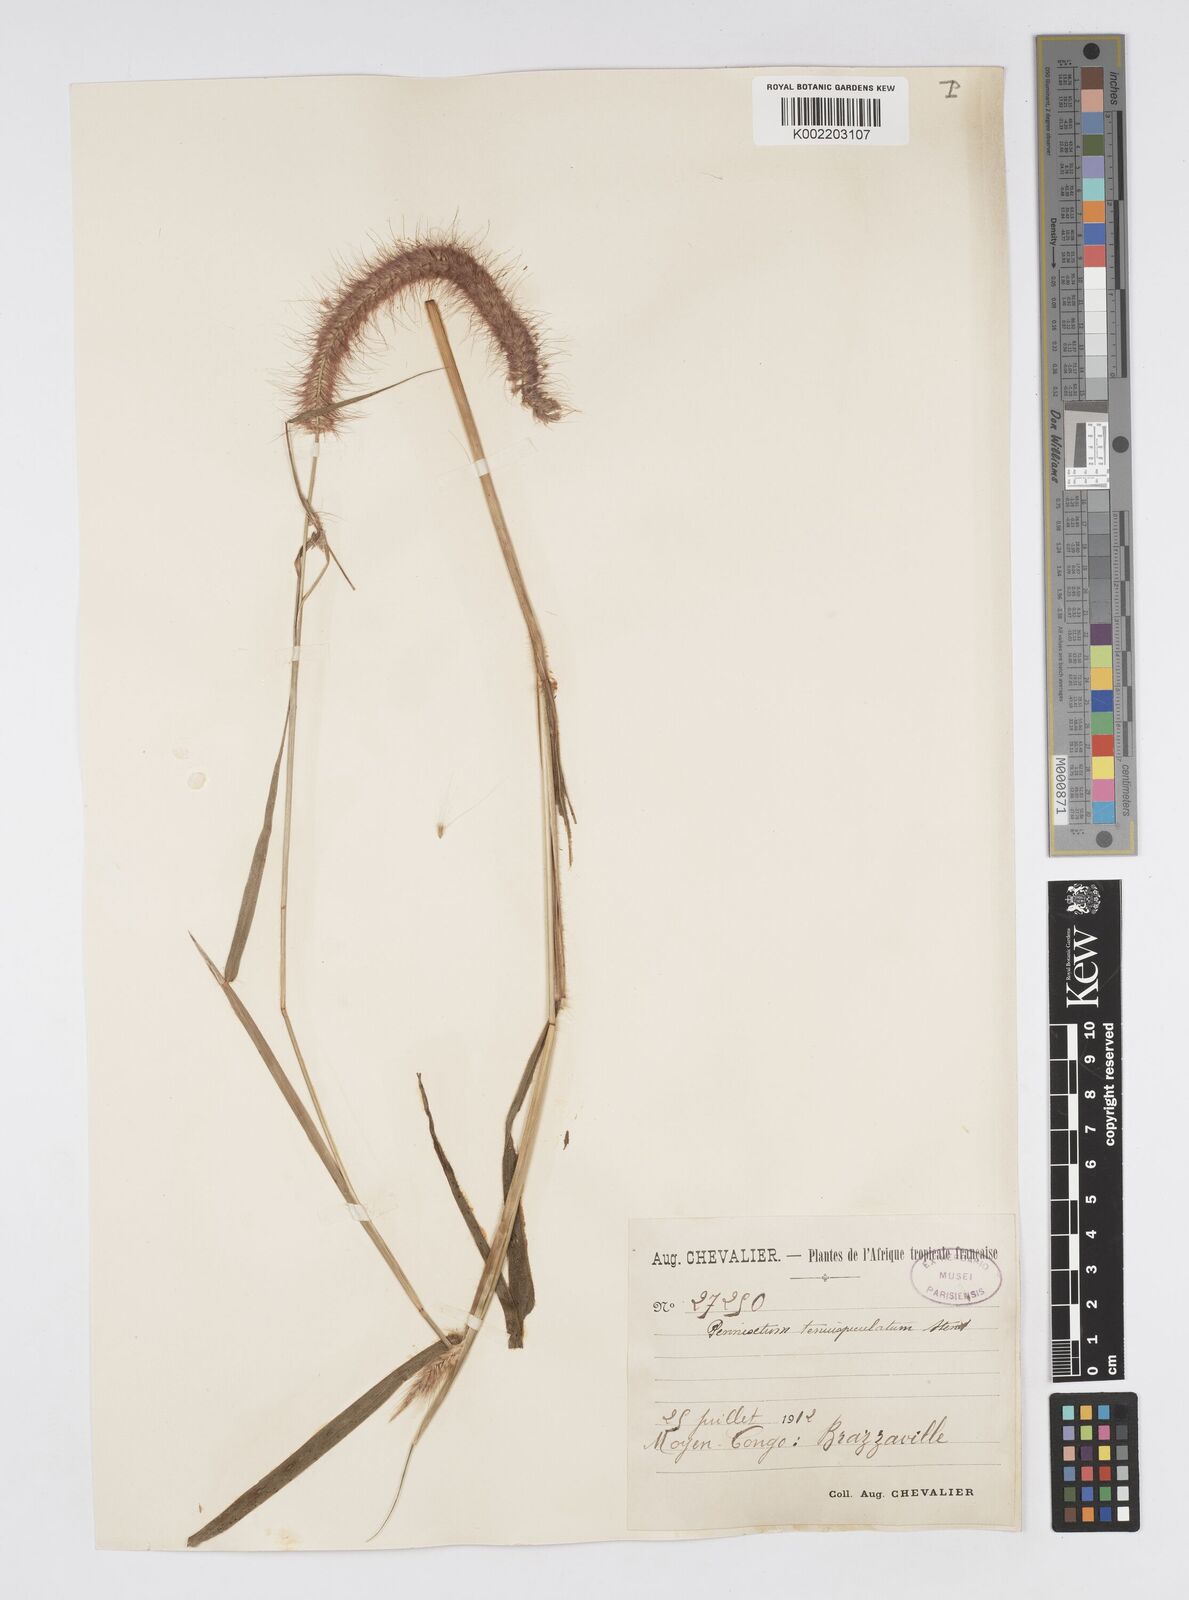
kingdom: Plantae
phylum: Tracheophyta
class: Liliopsida
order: Poales
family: Poaceae
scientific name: Poaceae
